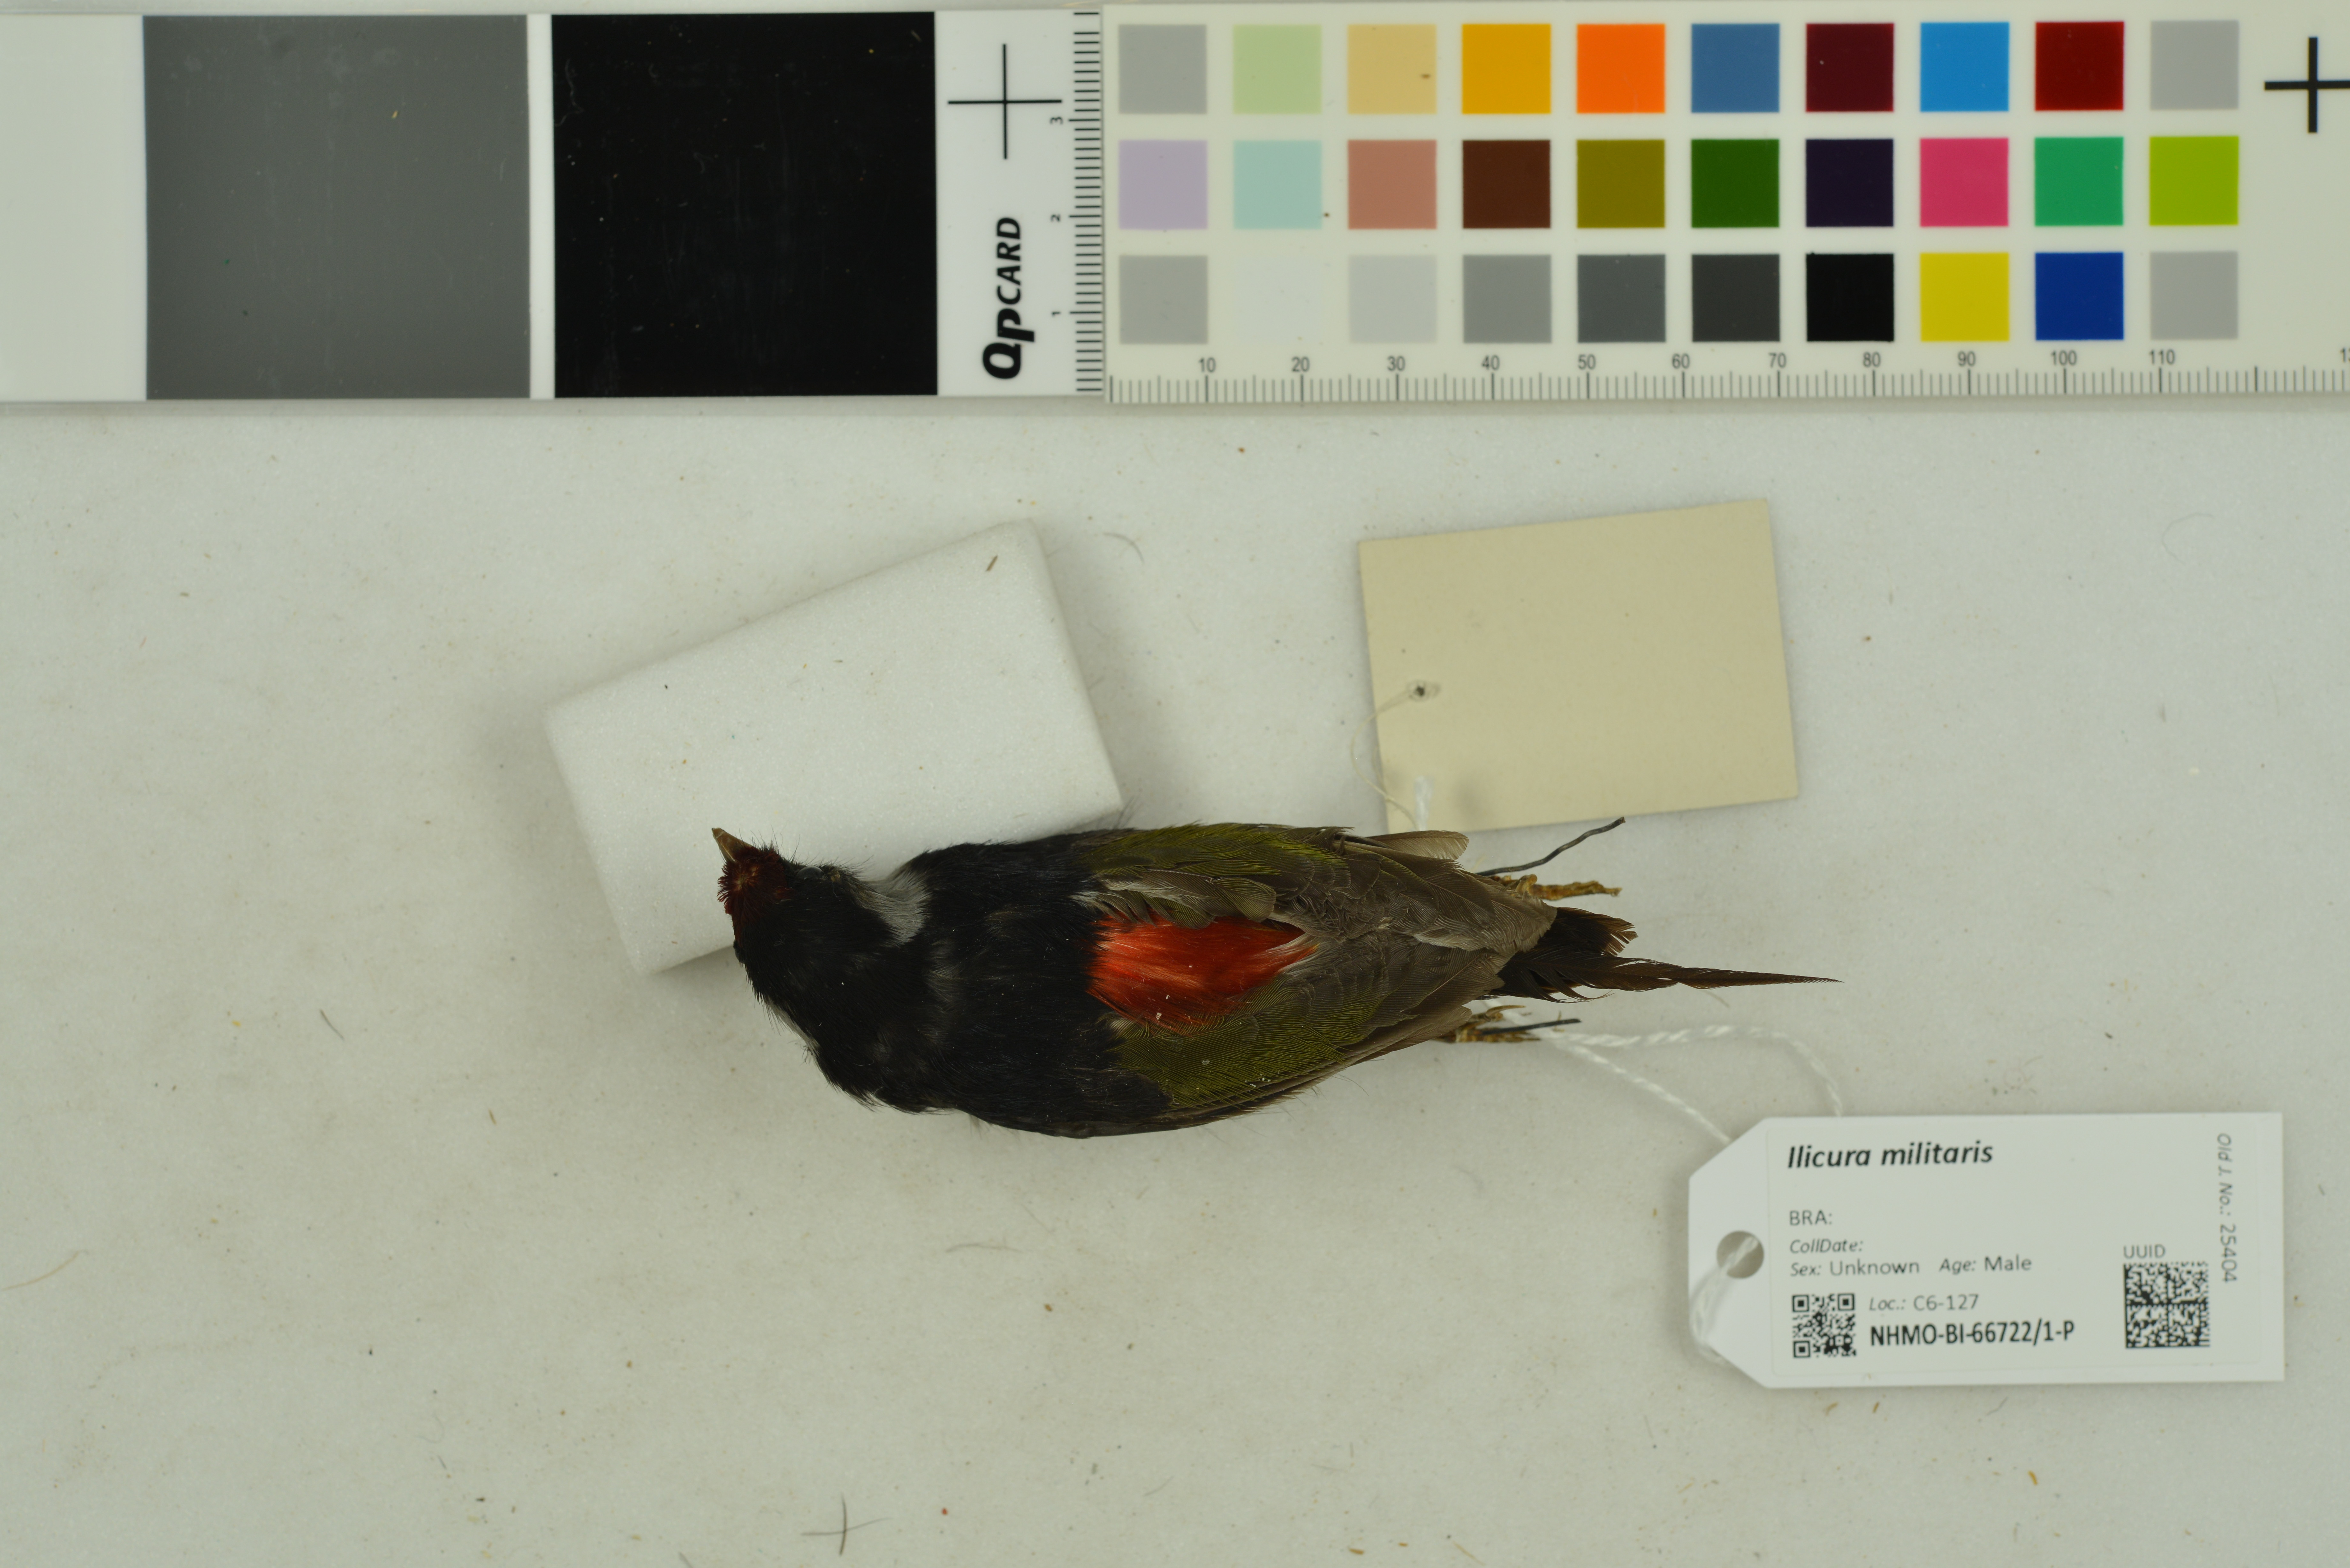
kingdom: Animalia
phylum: Chordata
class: Aves
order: Passeriformes
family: Pipridae
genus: Ilicura
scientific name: Ilicura militaris
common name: Pin-tailed manakin
